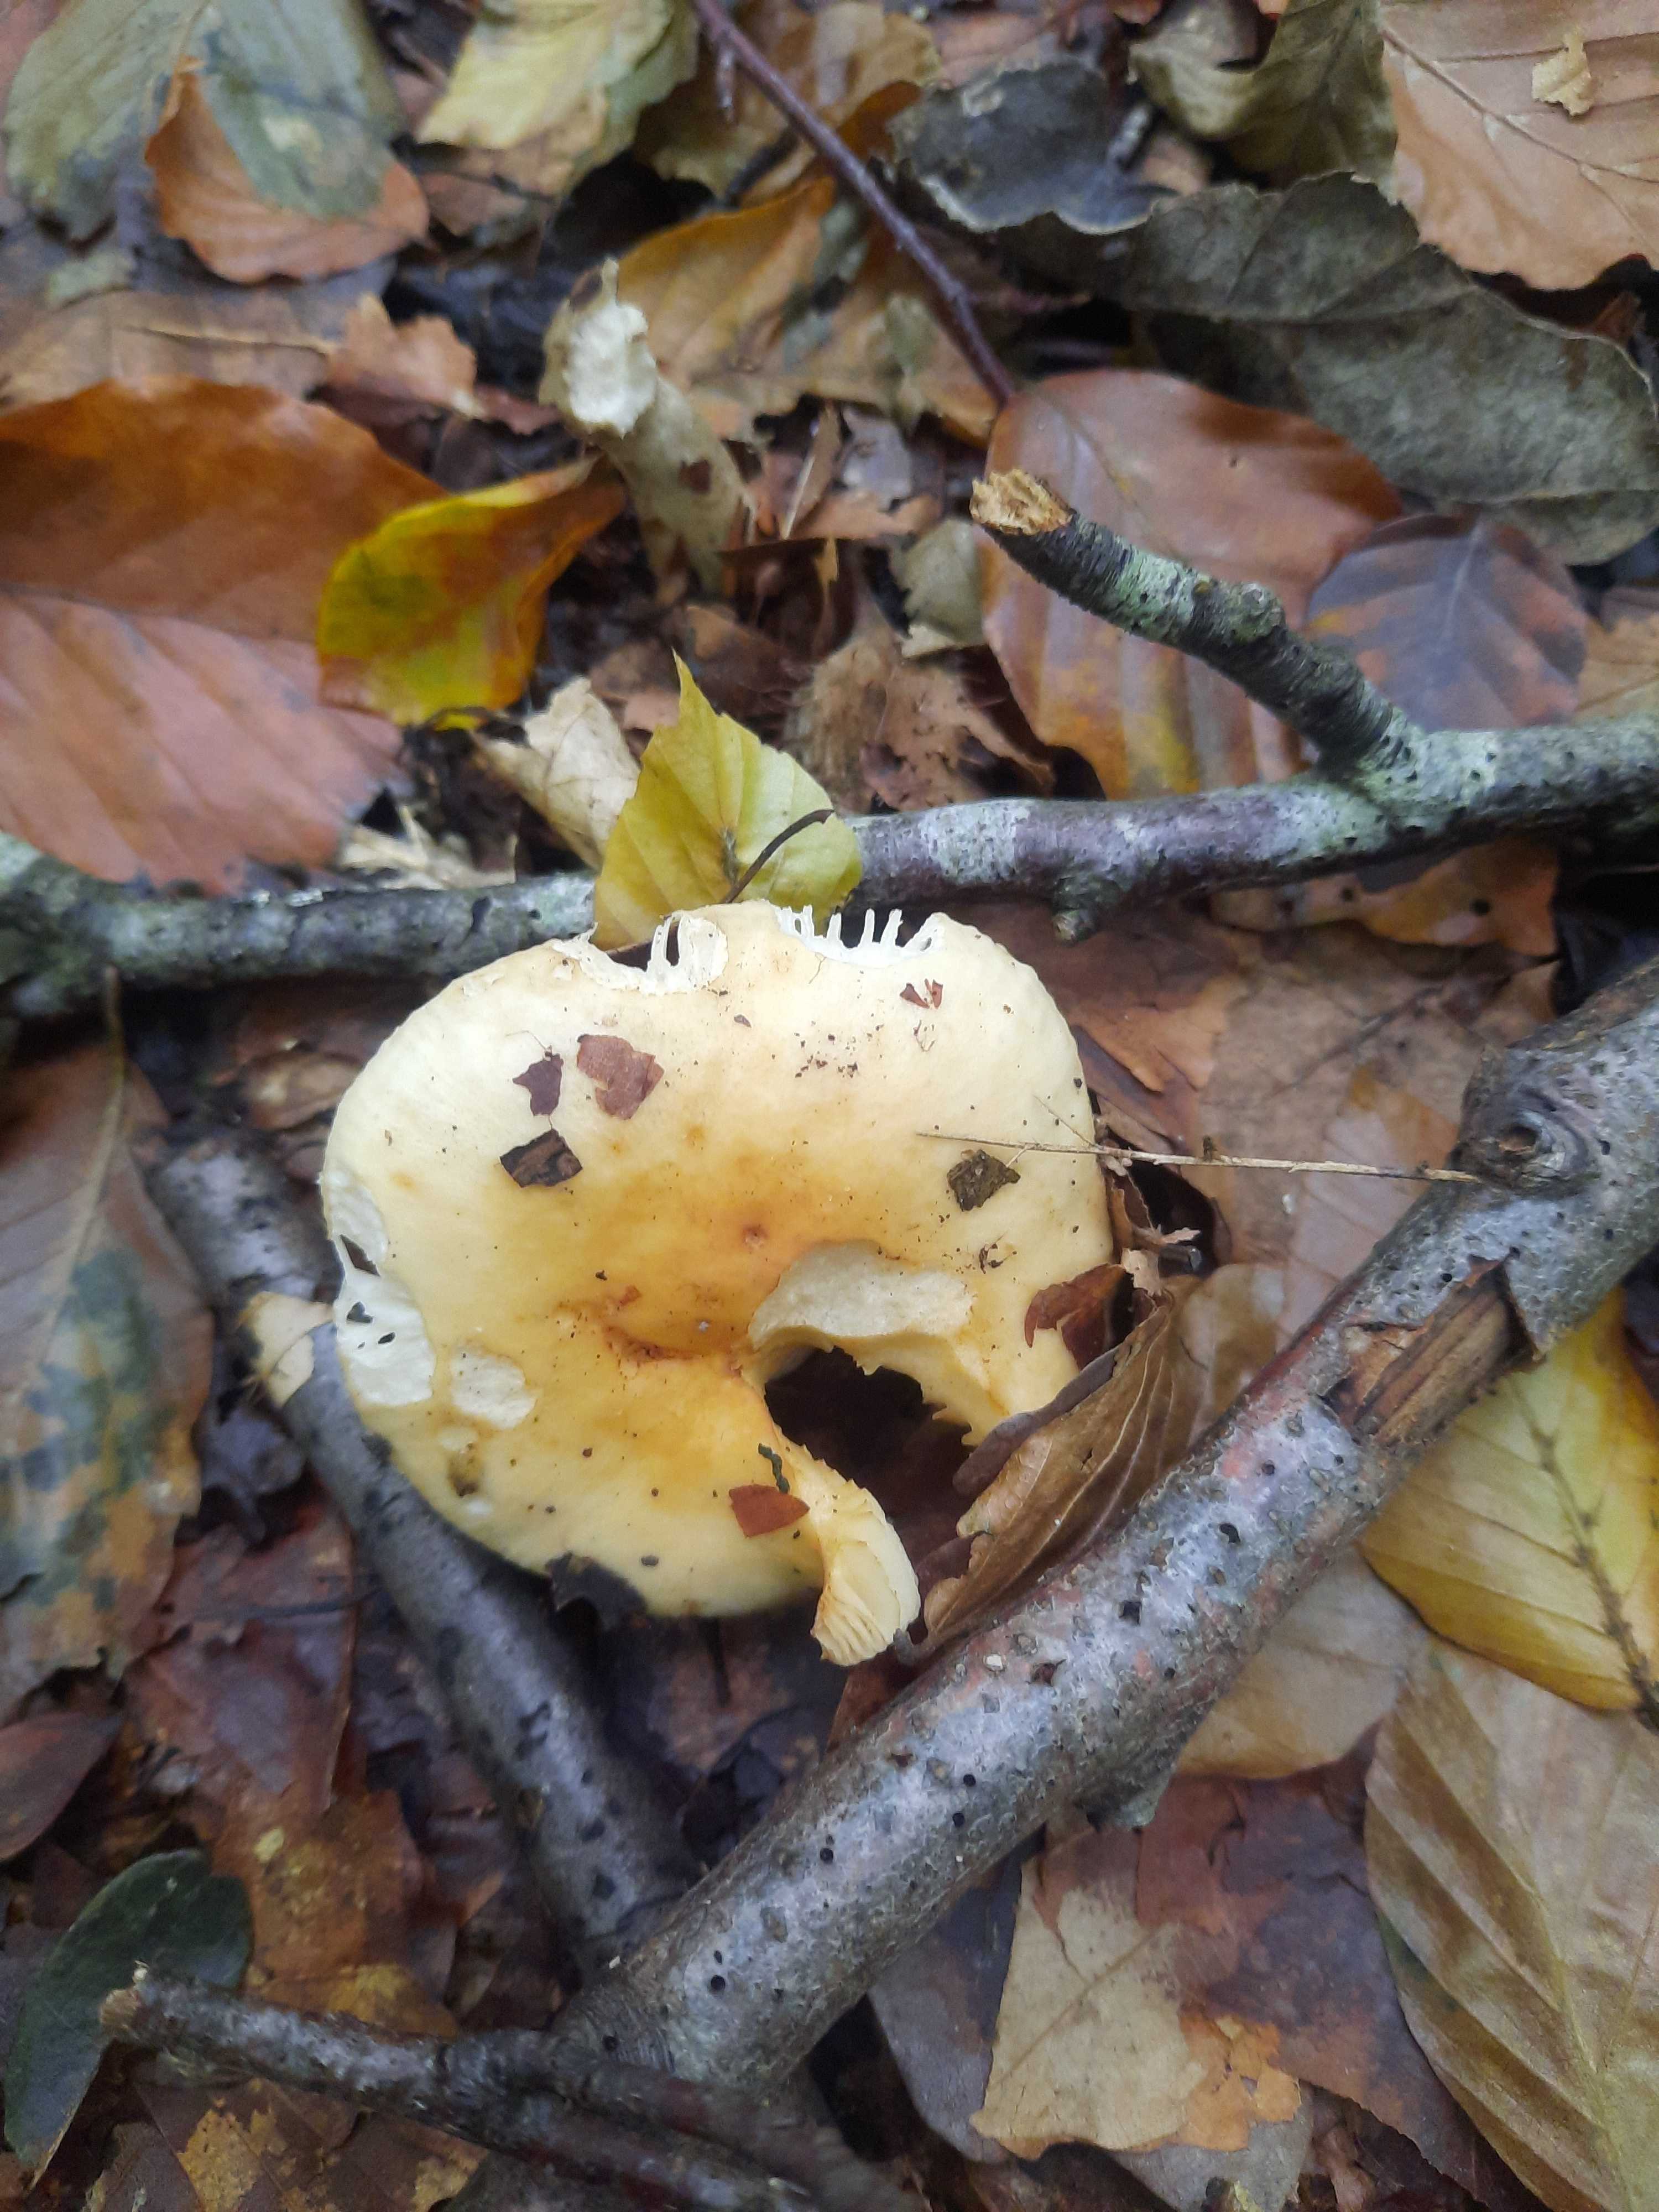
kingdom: Fungi
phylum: Basidiomycota
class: Agaricomycetes
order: Russulales
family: Russulaceae
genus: Russula
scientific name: Russula fellea
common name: galde-skørhat
